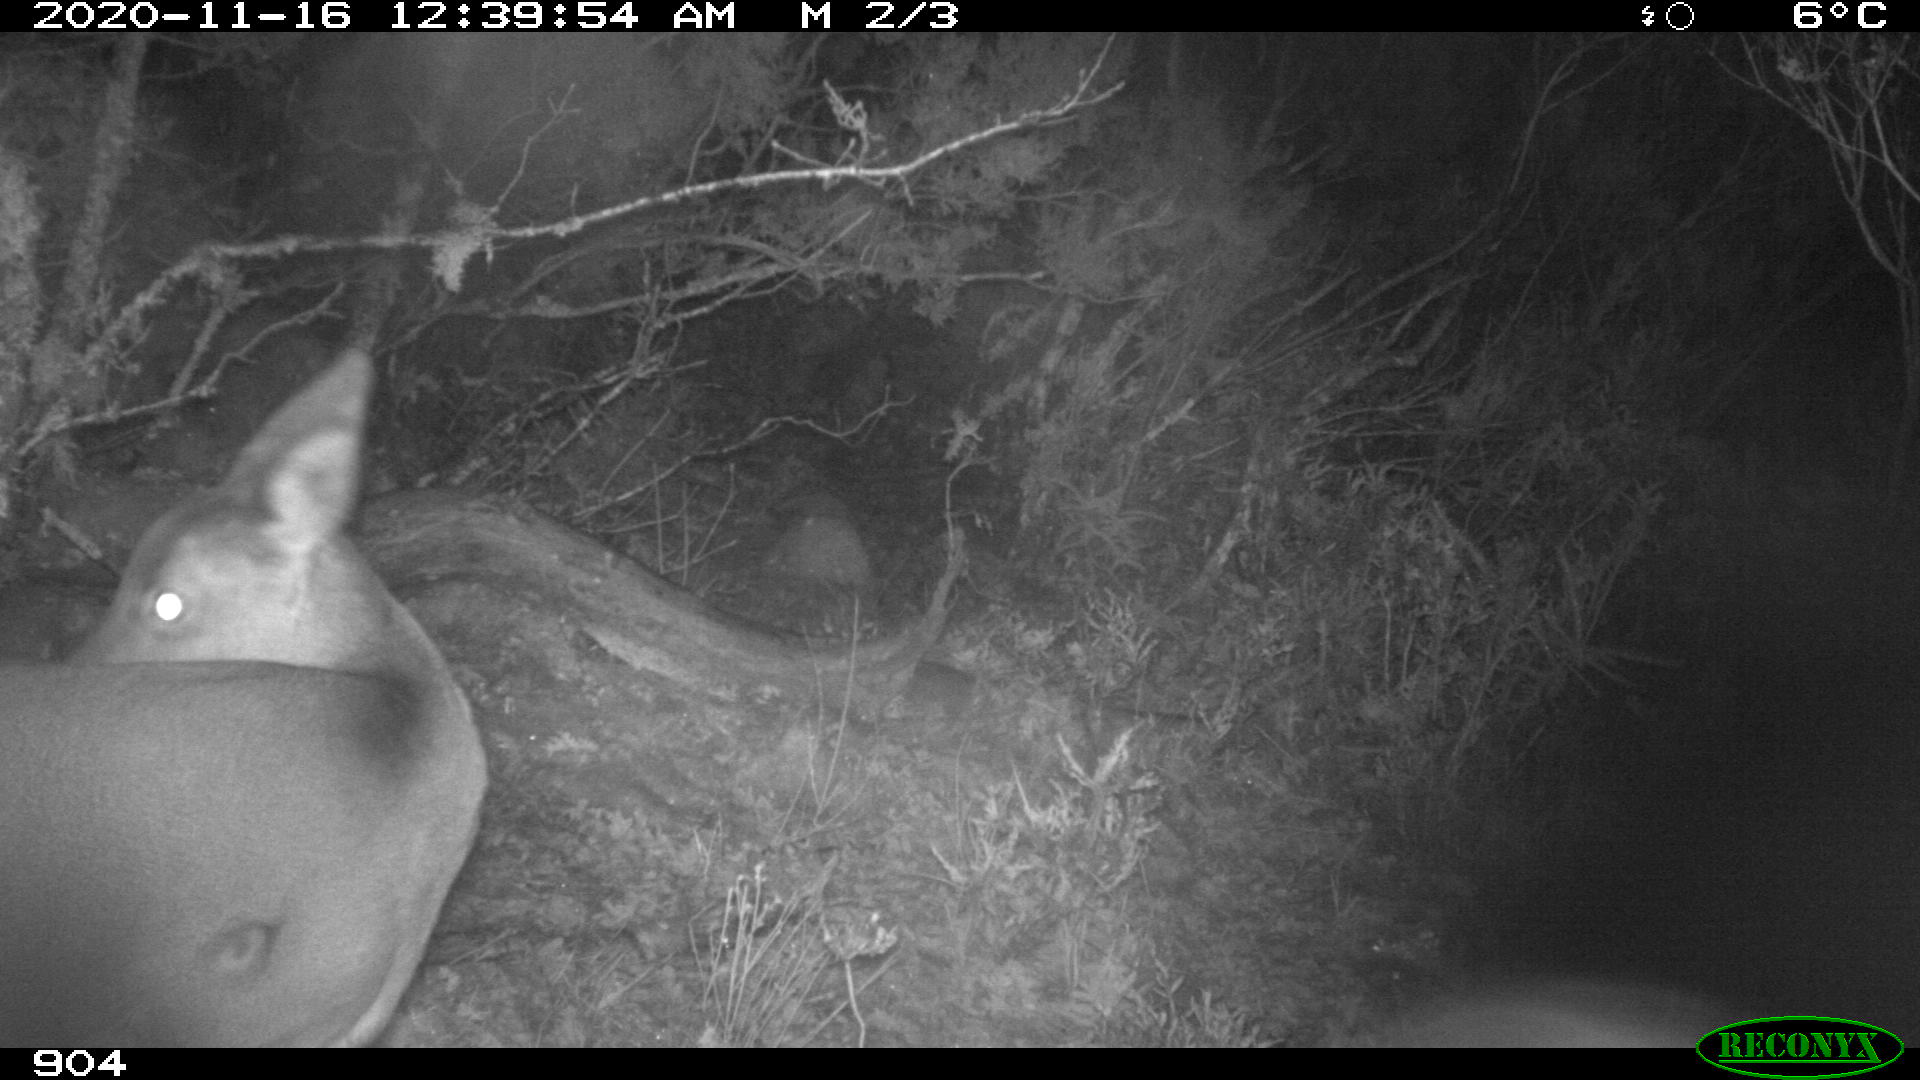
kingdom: Animalia
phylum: Chordata
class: Mammalia
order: Artiodactyla
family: Cervidae
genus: Capreolus
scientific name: Capreolus capreolus
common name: Western roe deer
